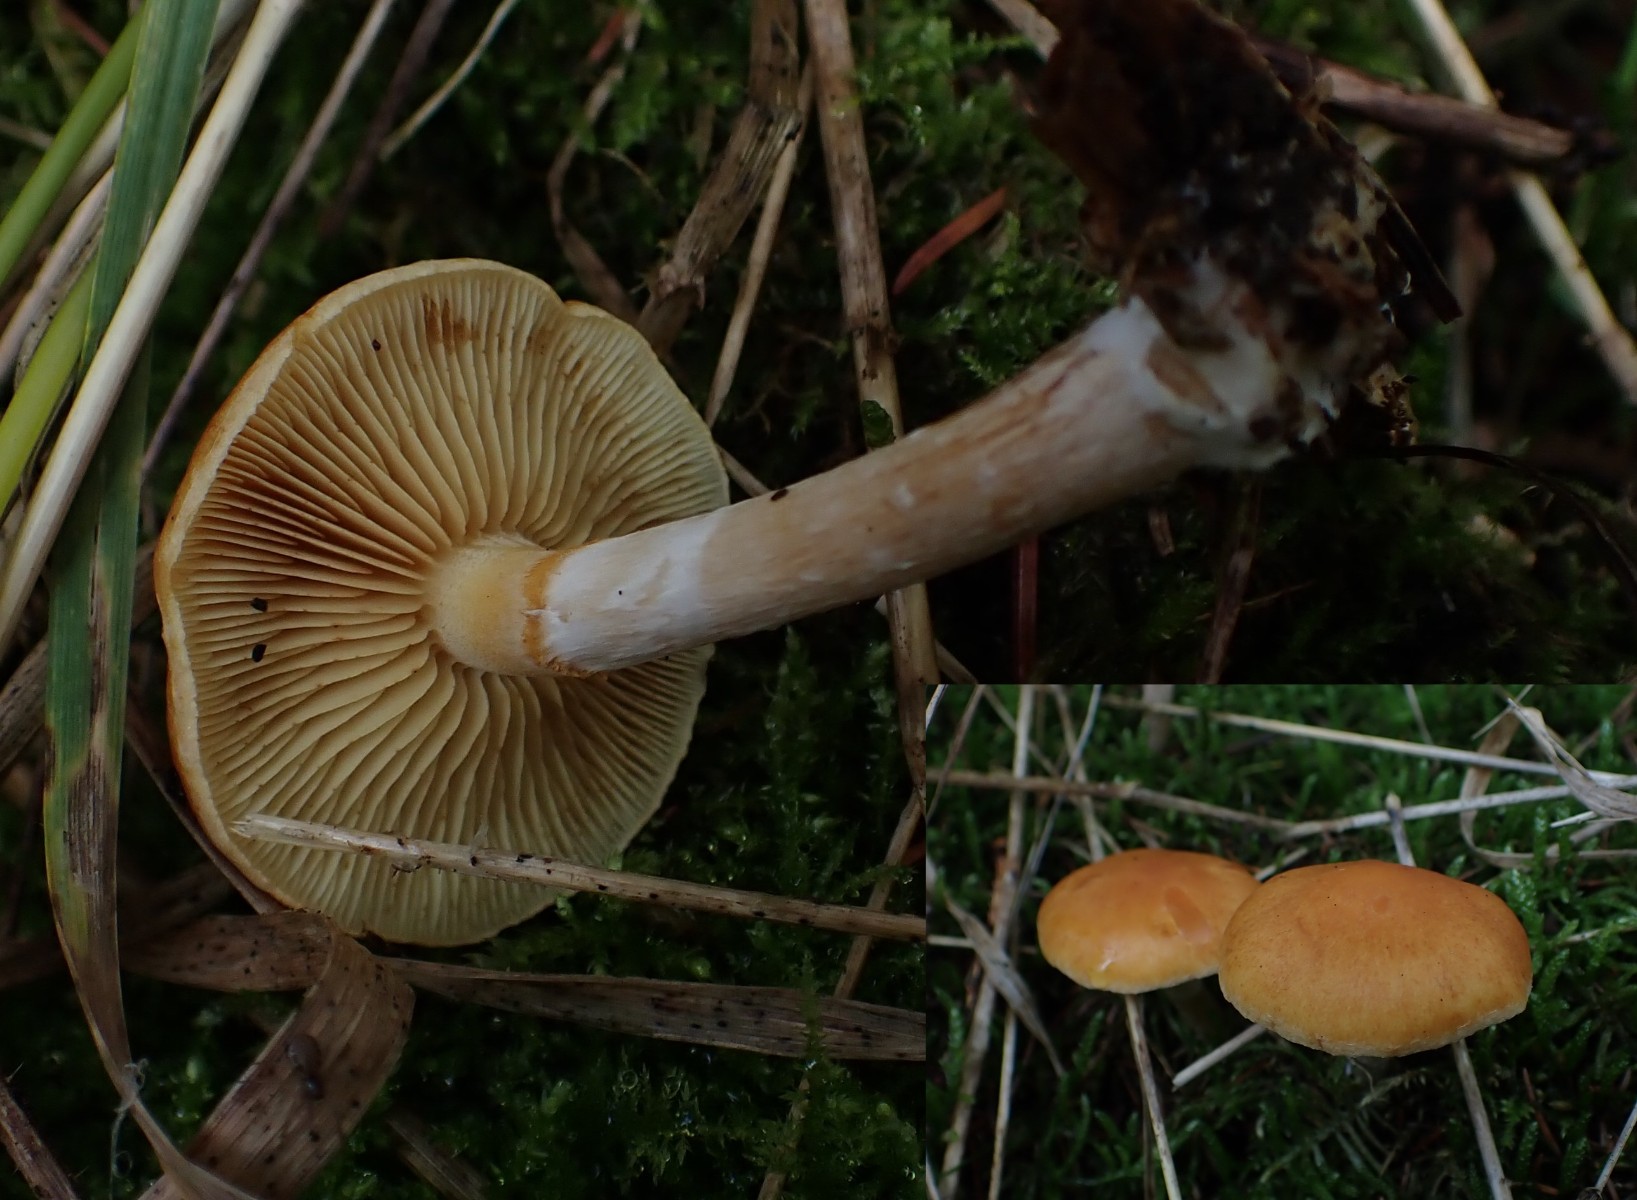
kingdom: Fungi
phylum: Basidiomycota
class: Agaricomycetes
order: Agaricales
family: Hymenogastraceae
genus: Gymnopilus
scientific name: Gymnopilus penetrans
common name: plettet flammehat
